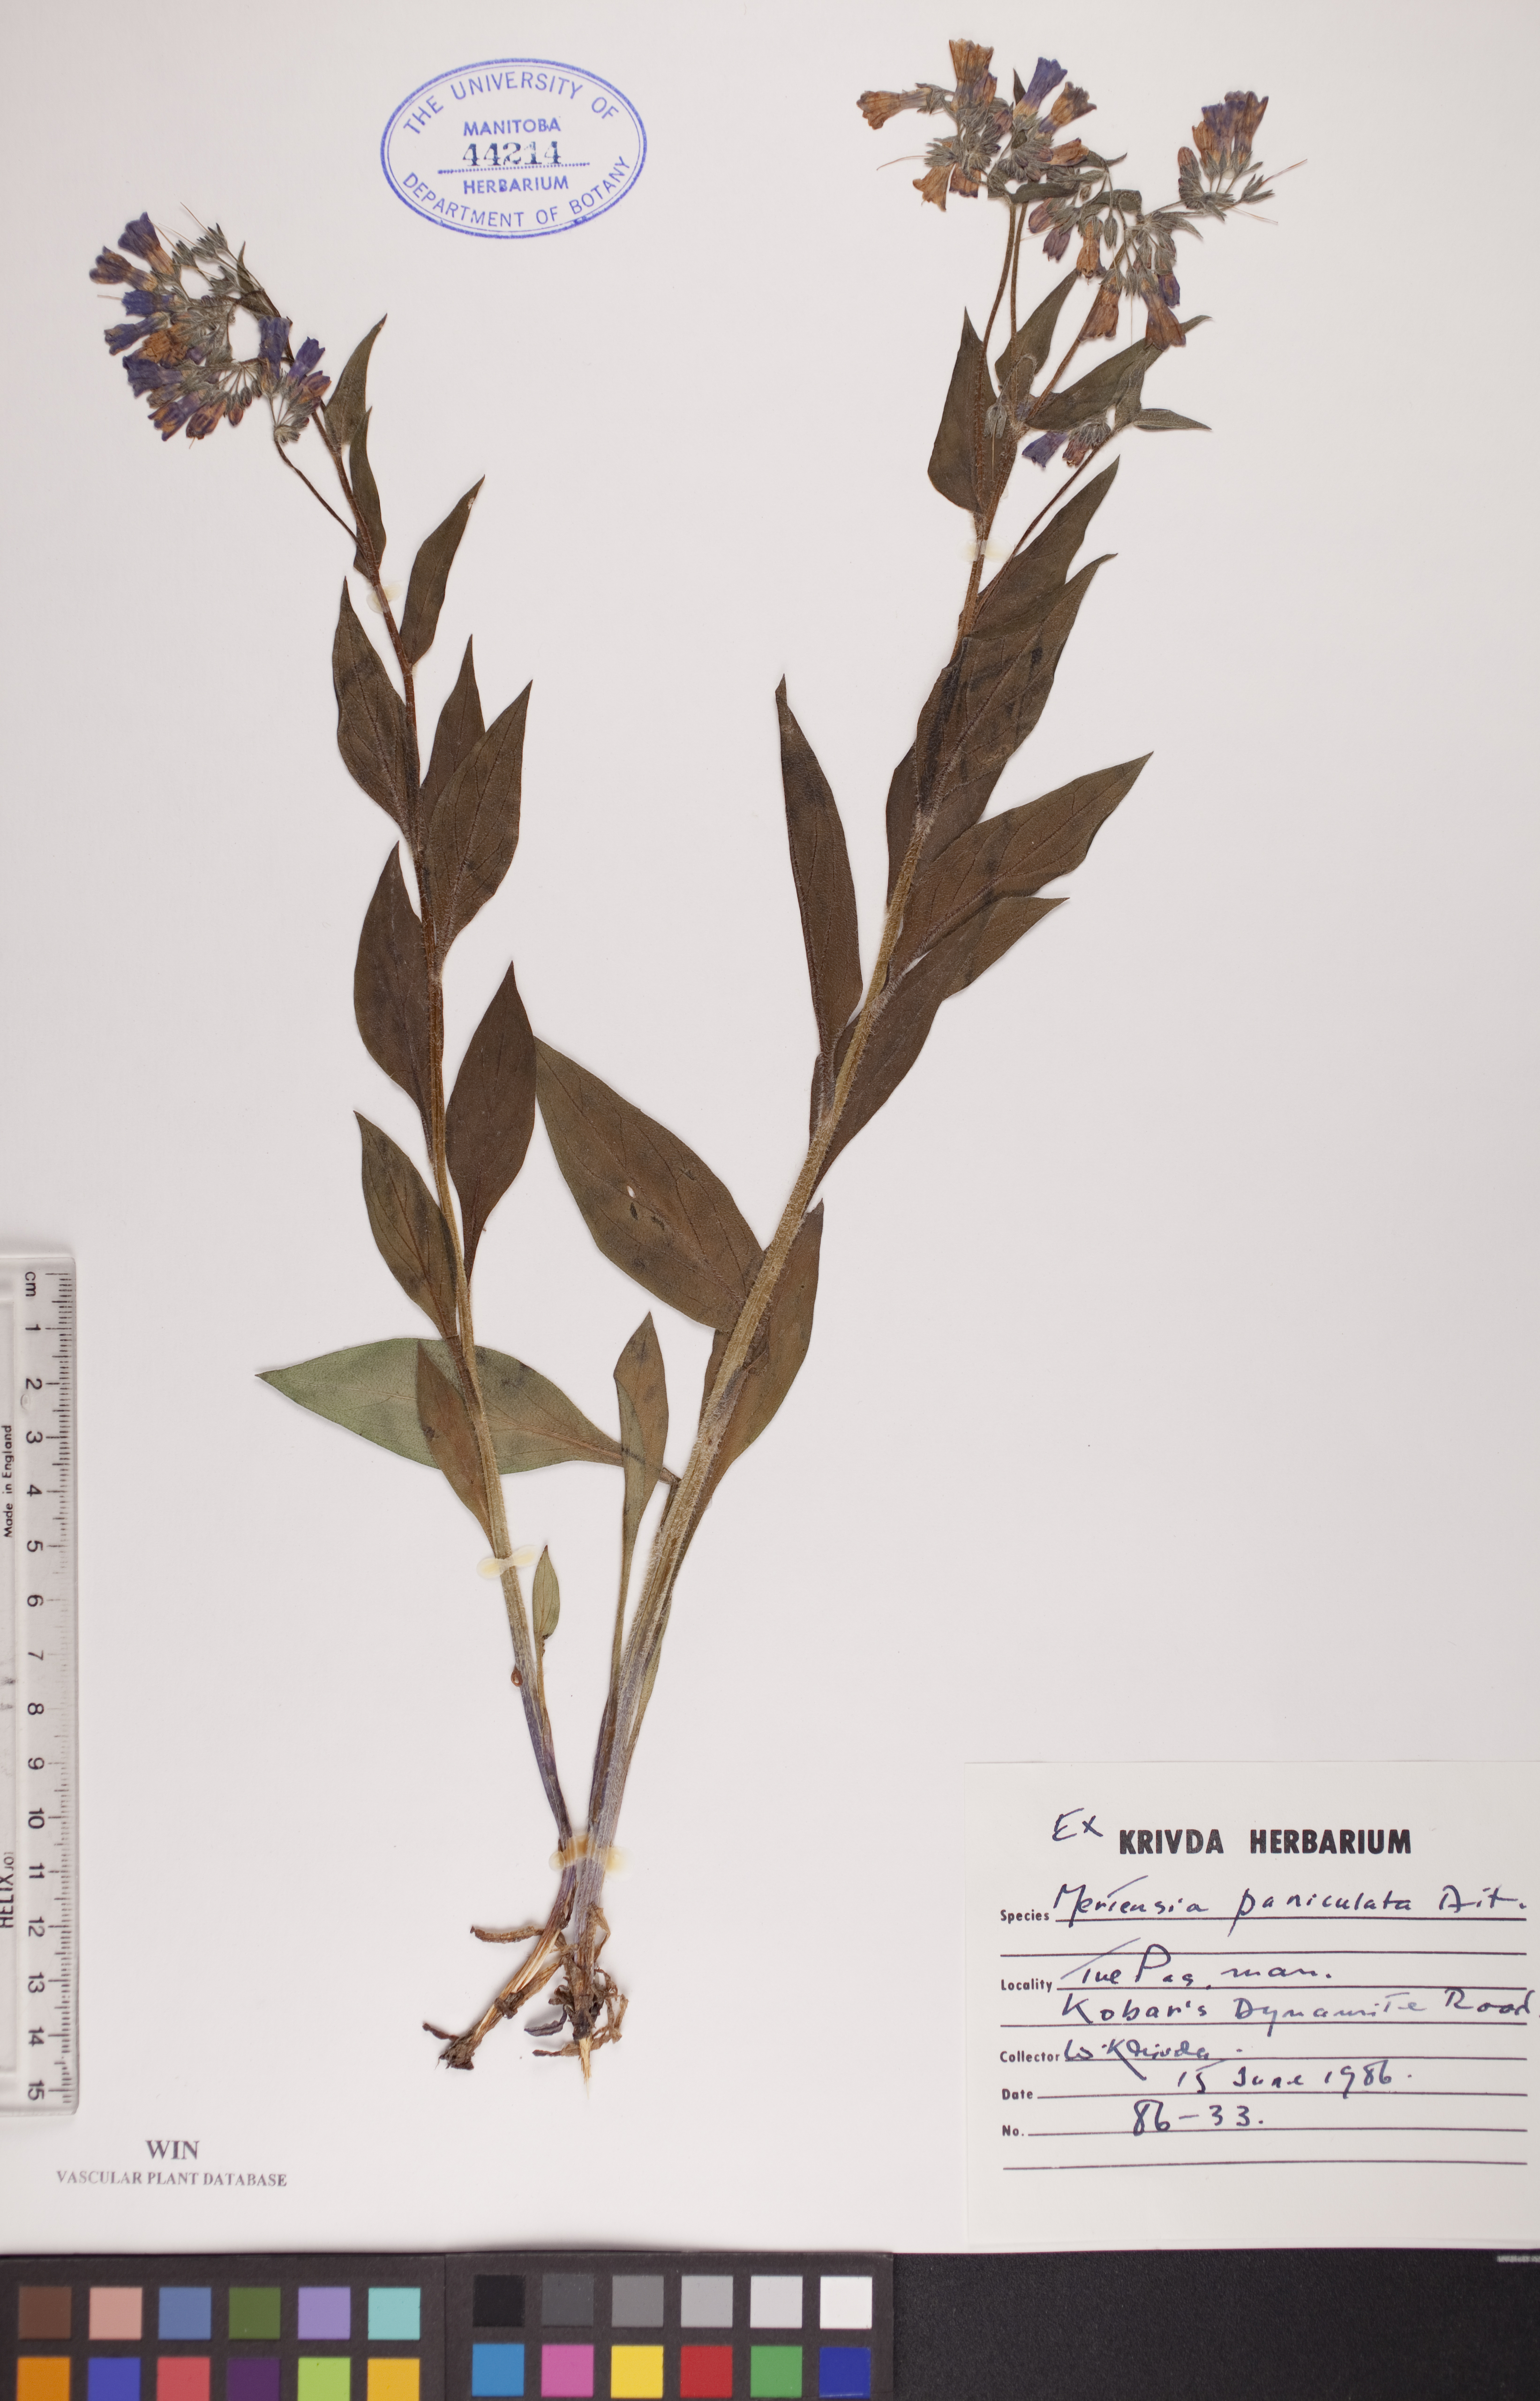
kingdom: Plantae
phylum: Tracheophyta
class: Magnoliopsida
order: Boraginales
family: Boraginaceae
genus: Mertensia
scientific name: Mertensia paniculata
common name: Panicled bluebells
